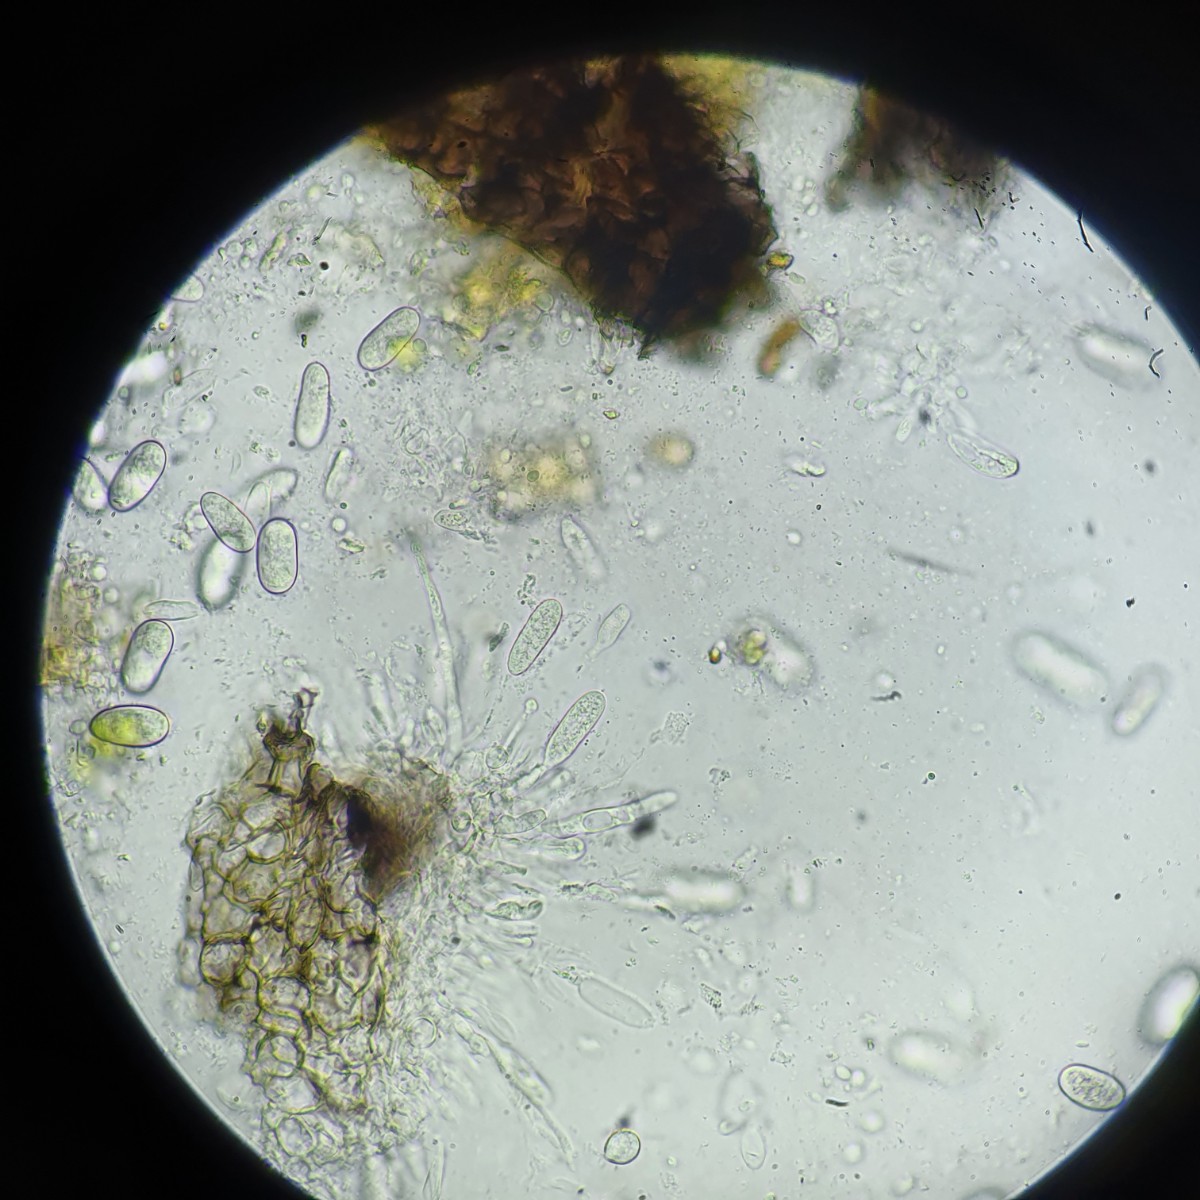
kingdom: Fungi
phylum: Ascomycota
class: Dothideomycetes
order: Botryosphaeriales
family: Botryosphaeriaceae
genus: Diplodia
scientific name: Diplodia forsythiae
